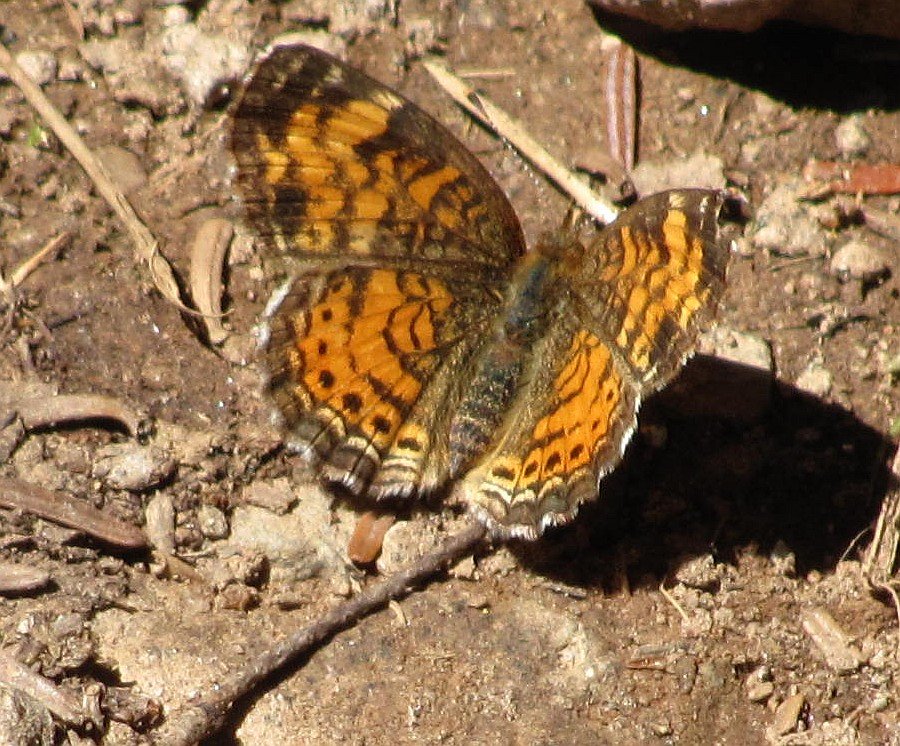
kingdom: Animalia
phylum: Arthropoda
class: Insecta
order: Lepidoptera
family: Nymphalidae
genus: Phyciodes
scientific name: Phyciodes tharos
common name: Northern Crescent
